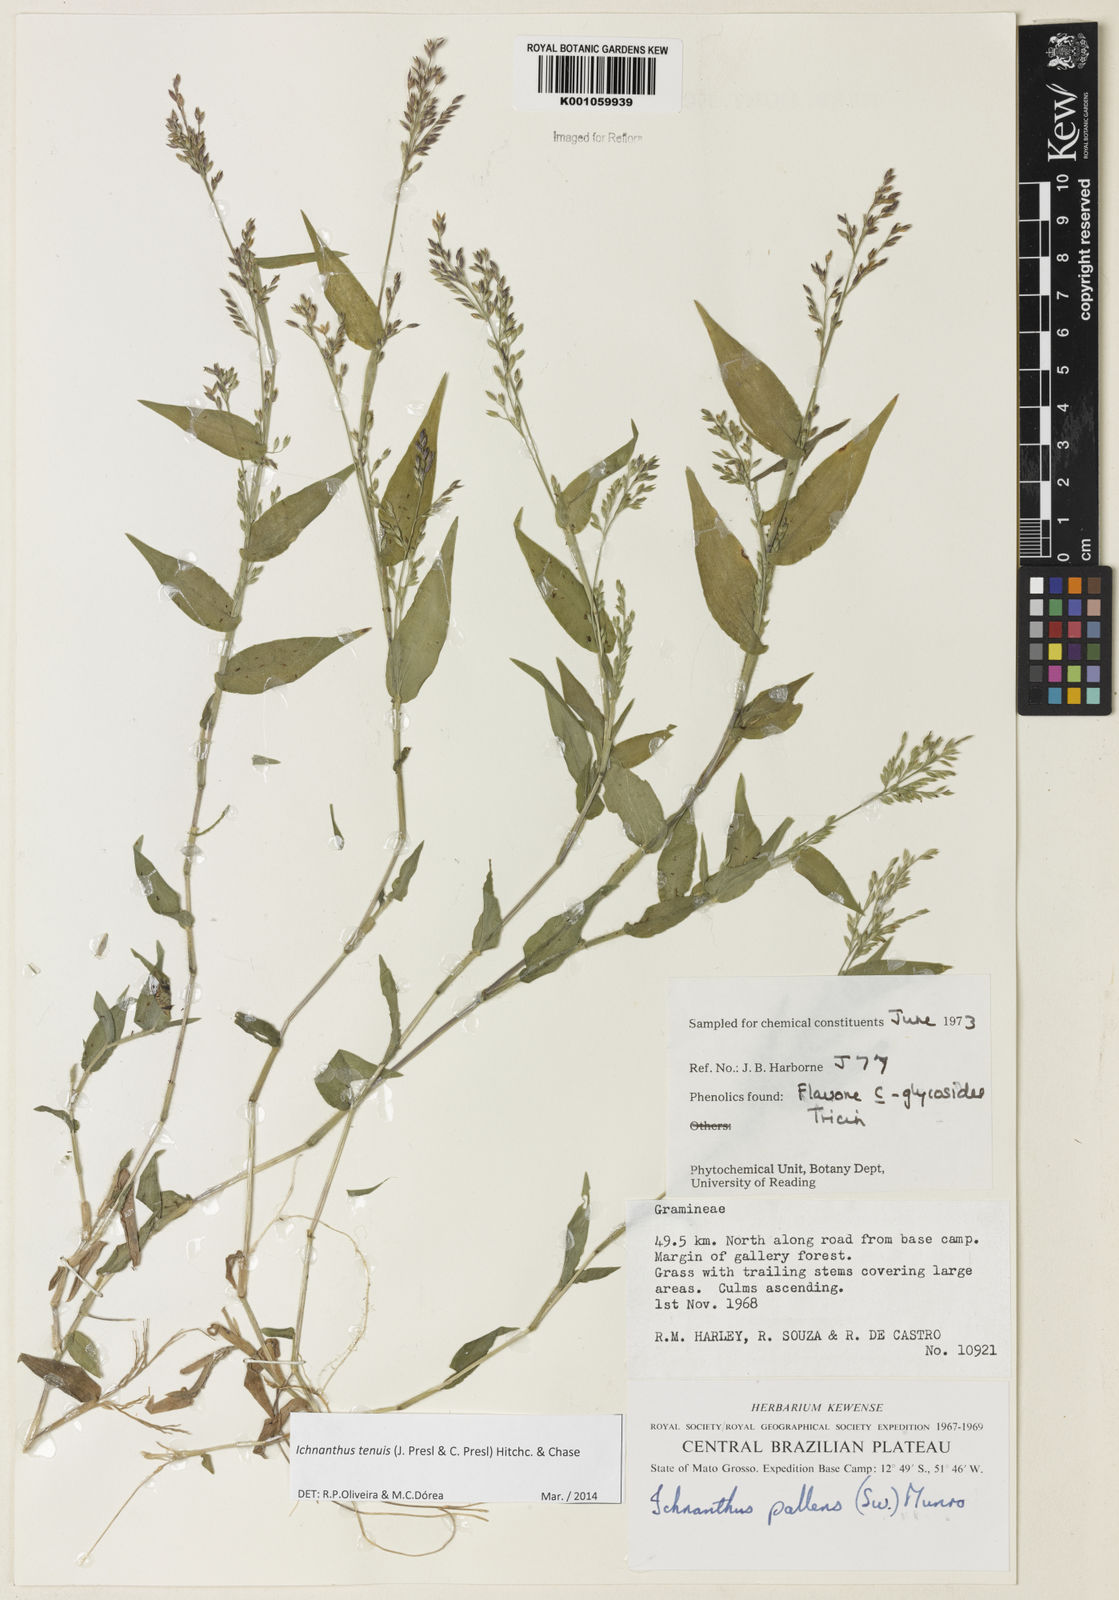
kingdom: Plantae
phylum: Tracheophyta
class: Liliopsida
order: Poales
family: Poaceae
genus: Ichnanthus
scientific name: Ichnanthus tenuis
